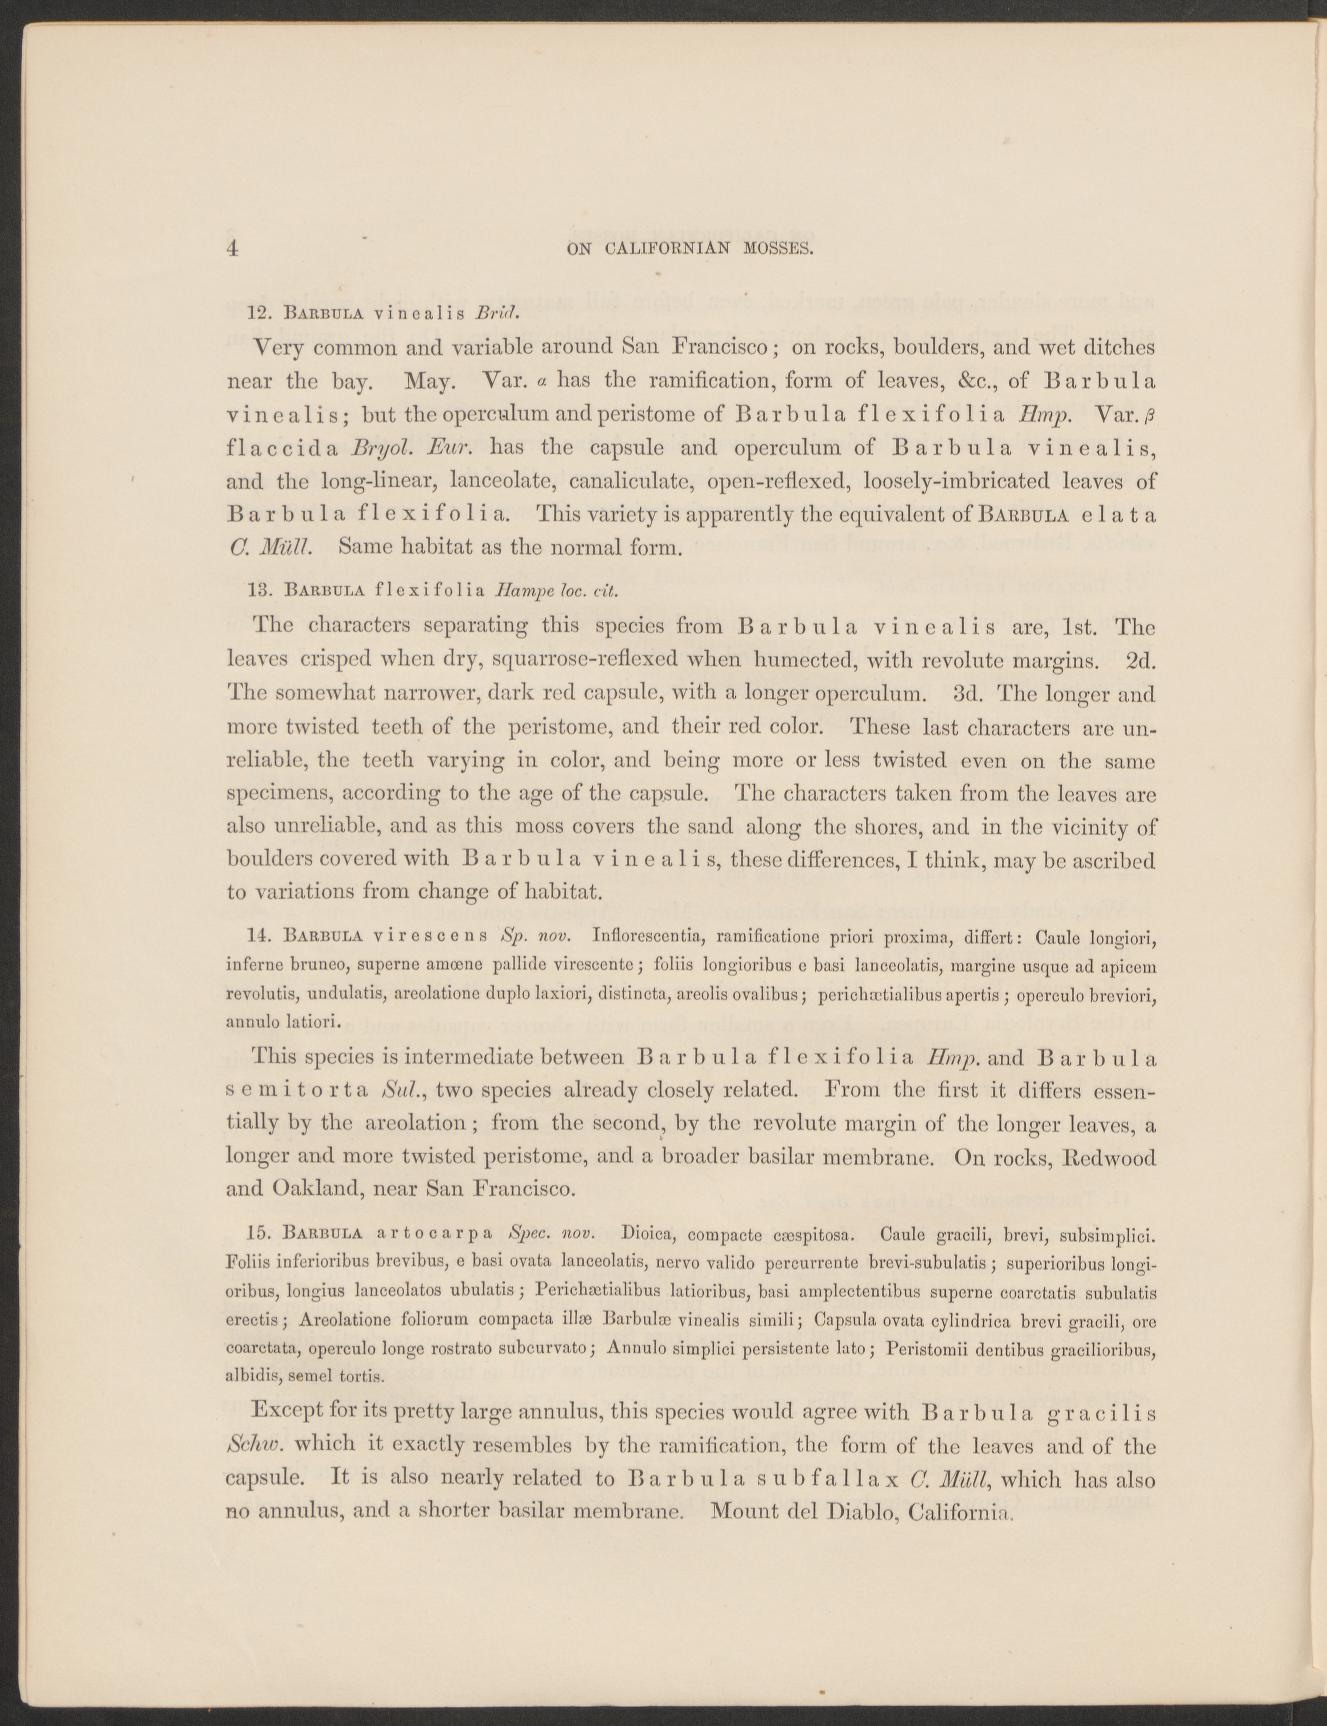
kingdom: Plantae
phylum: Bryophyta
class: Bryopsida
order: Pottiales
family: Pottiaceae
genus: Vinealobryum
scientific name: Vinealobryum vineale
